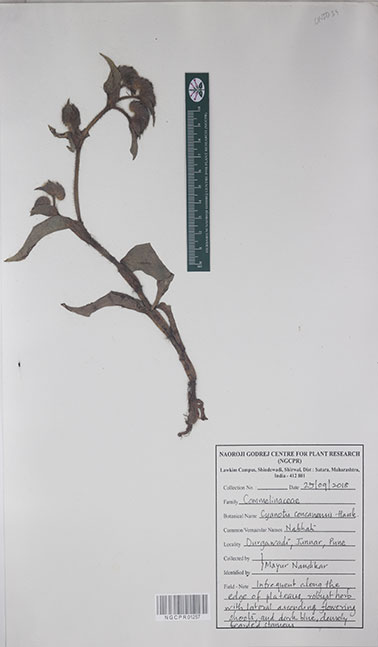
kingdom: Plantae
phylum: Tracheophyta
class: Liliopsida
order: Commelinales
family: Commelinaceae
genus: Cyanotis
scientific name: Cyanotis tuberosa
